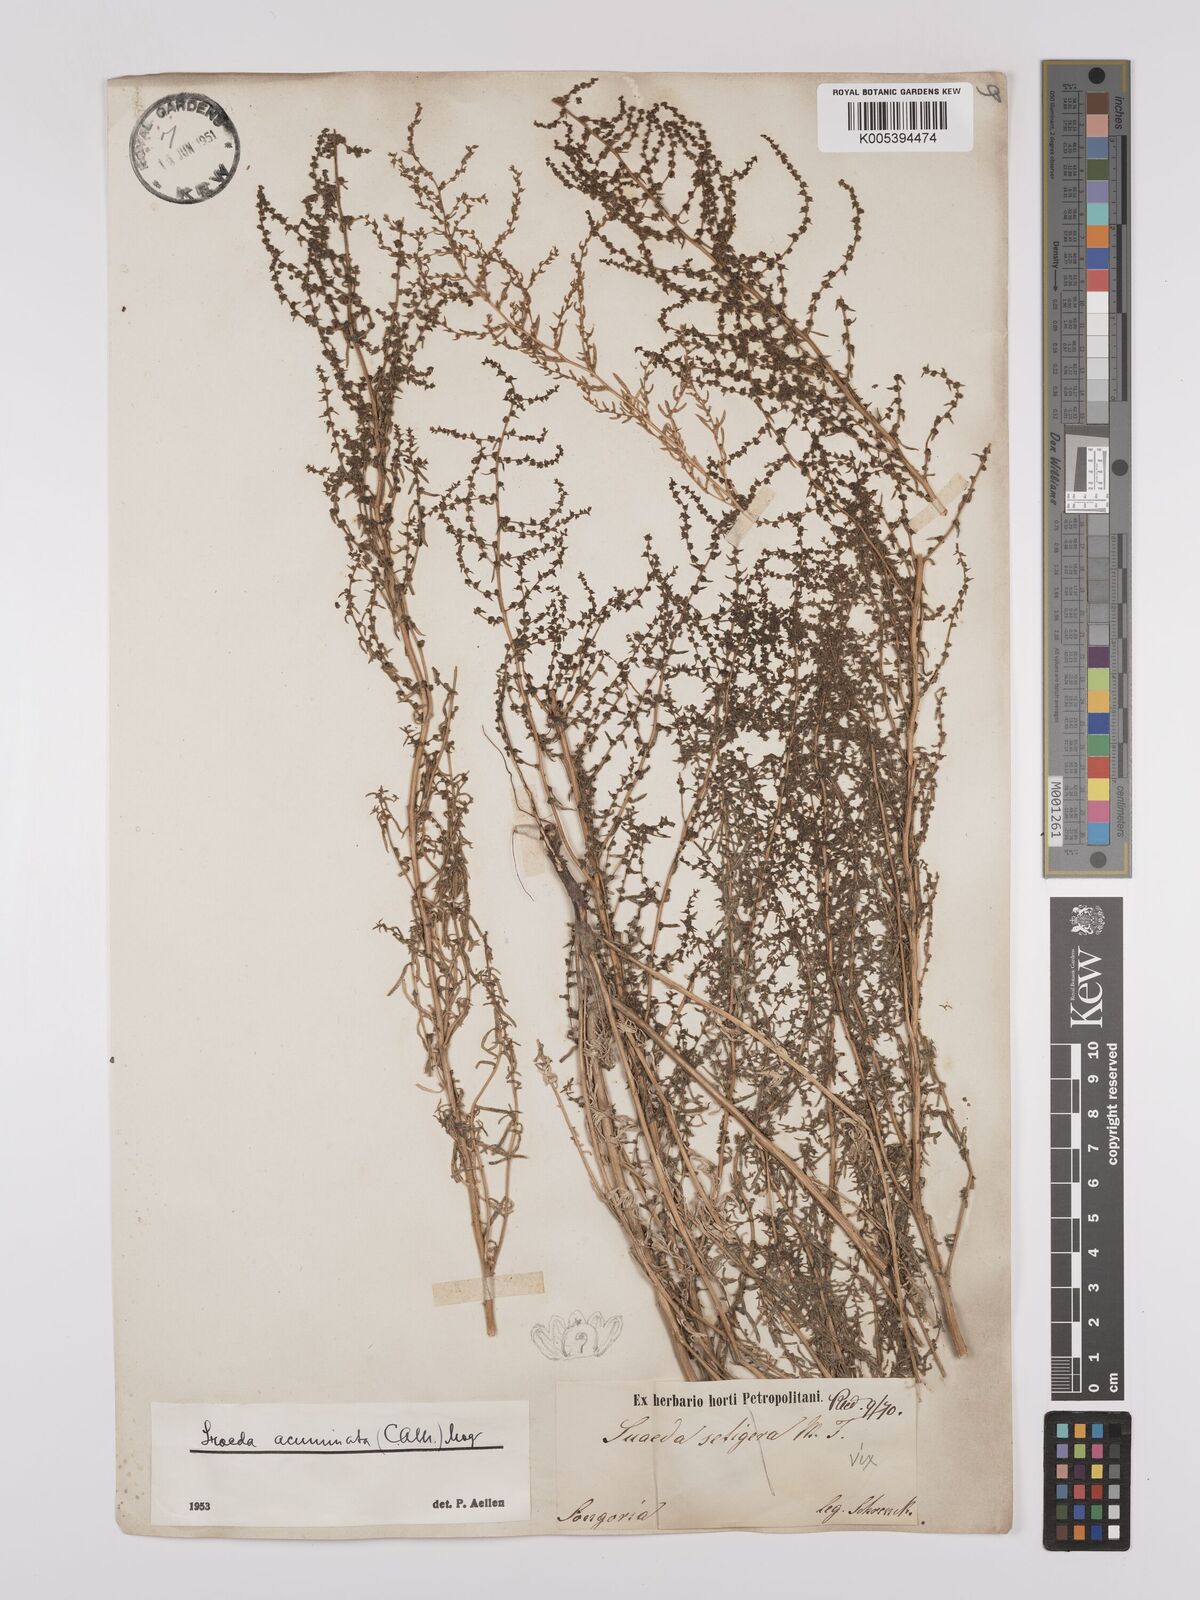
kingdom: Plantae
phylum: Tracheophyta
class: Magnoliopsida
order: Caryophyllales
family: Amaranthaceae
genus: Suaeda
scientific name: Suaeda acuminata
